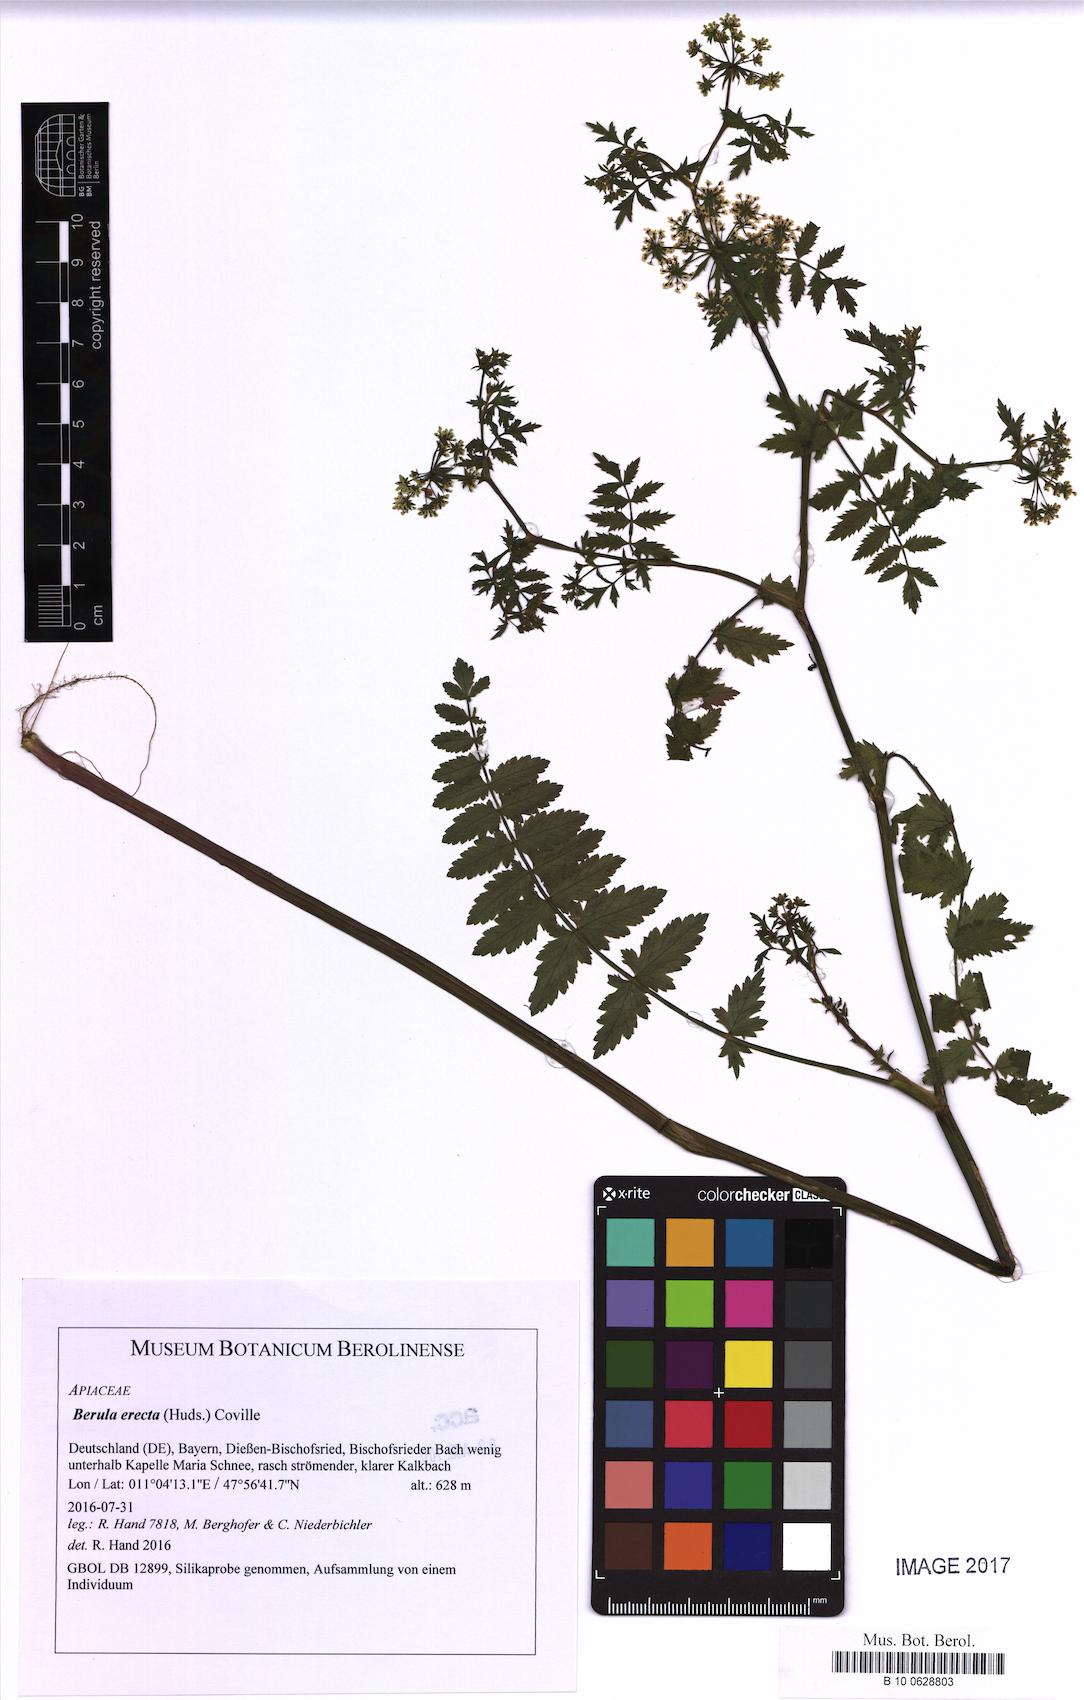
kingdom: Plantae
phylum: Tracheophyta
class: Magnoliopsida
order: Apiales
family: Apiaceae
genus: Berula
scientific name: Berula erecta
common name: Lesser water-parsnip
